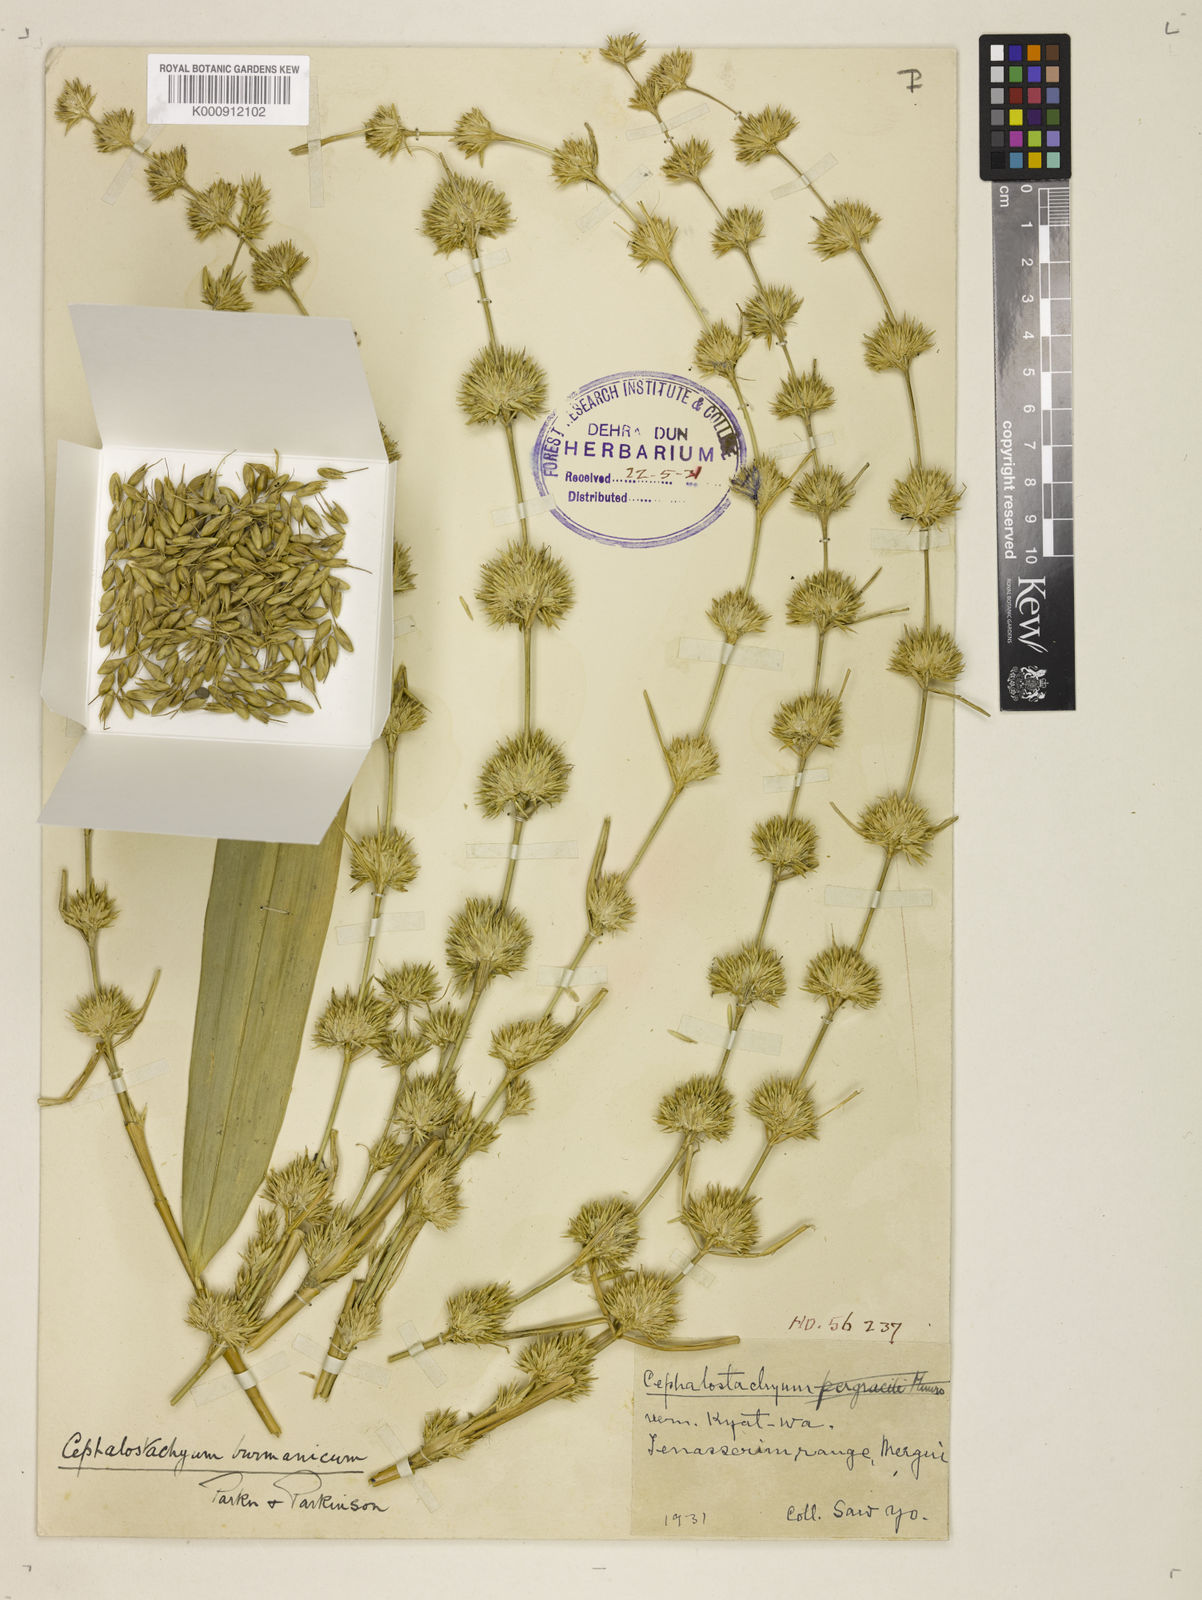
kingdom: Plantae
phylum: Tracheophyta
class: Liliopsida
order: Poales
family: Poaceae
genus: Cephalostachyum
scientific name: Cephalostachyum burmanicum
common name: Burma bambooshrub
